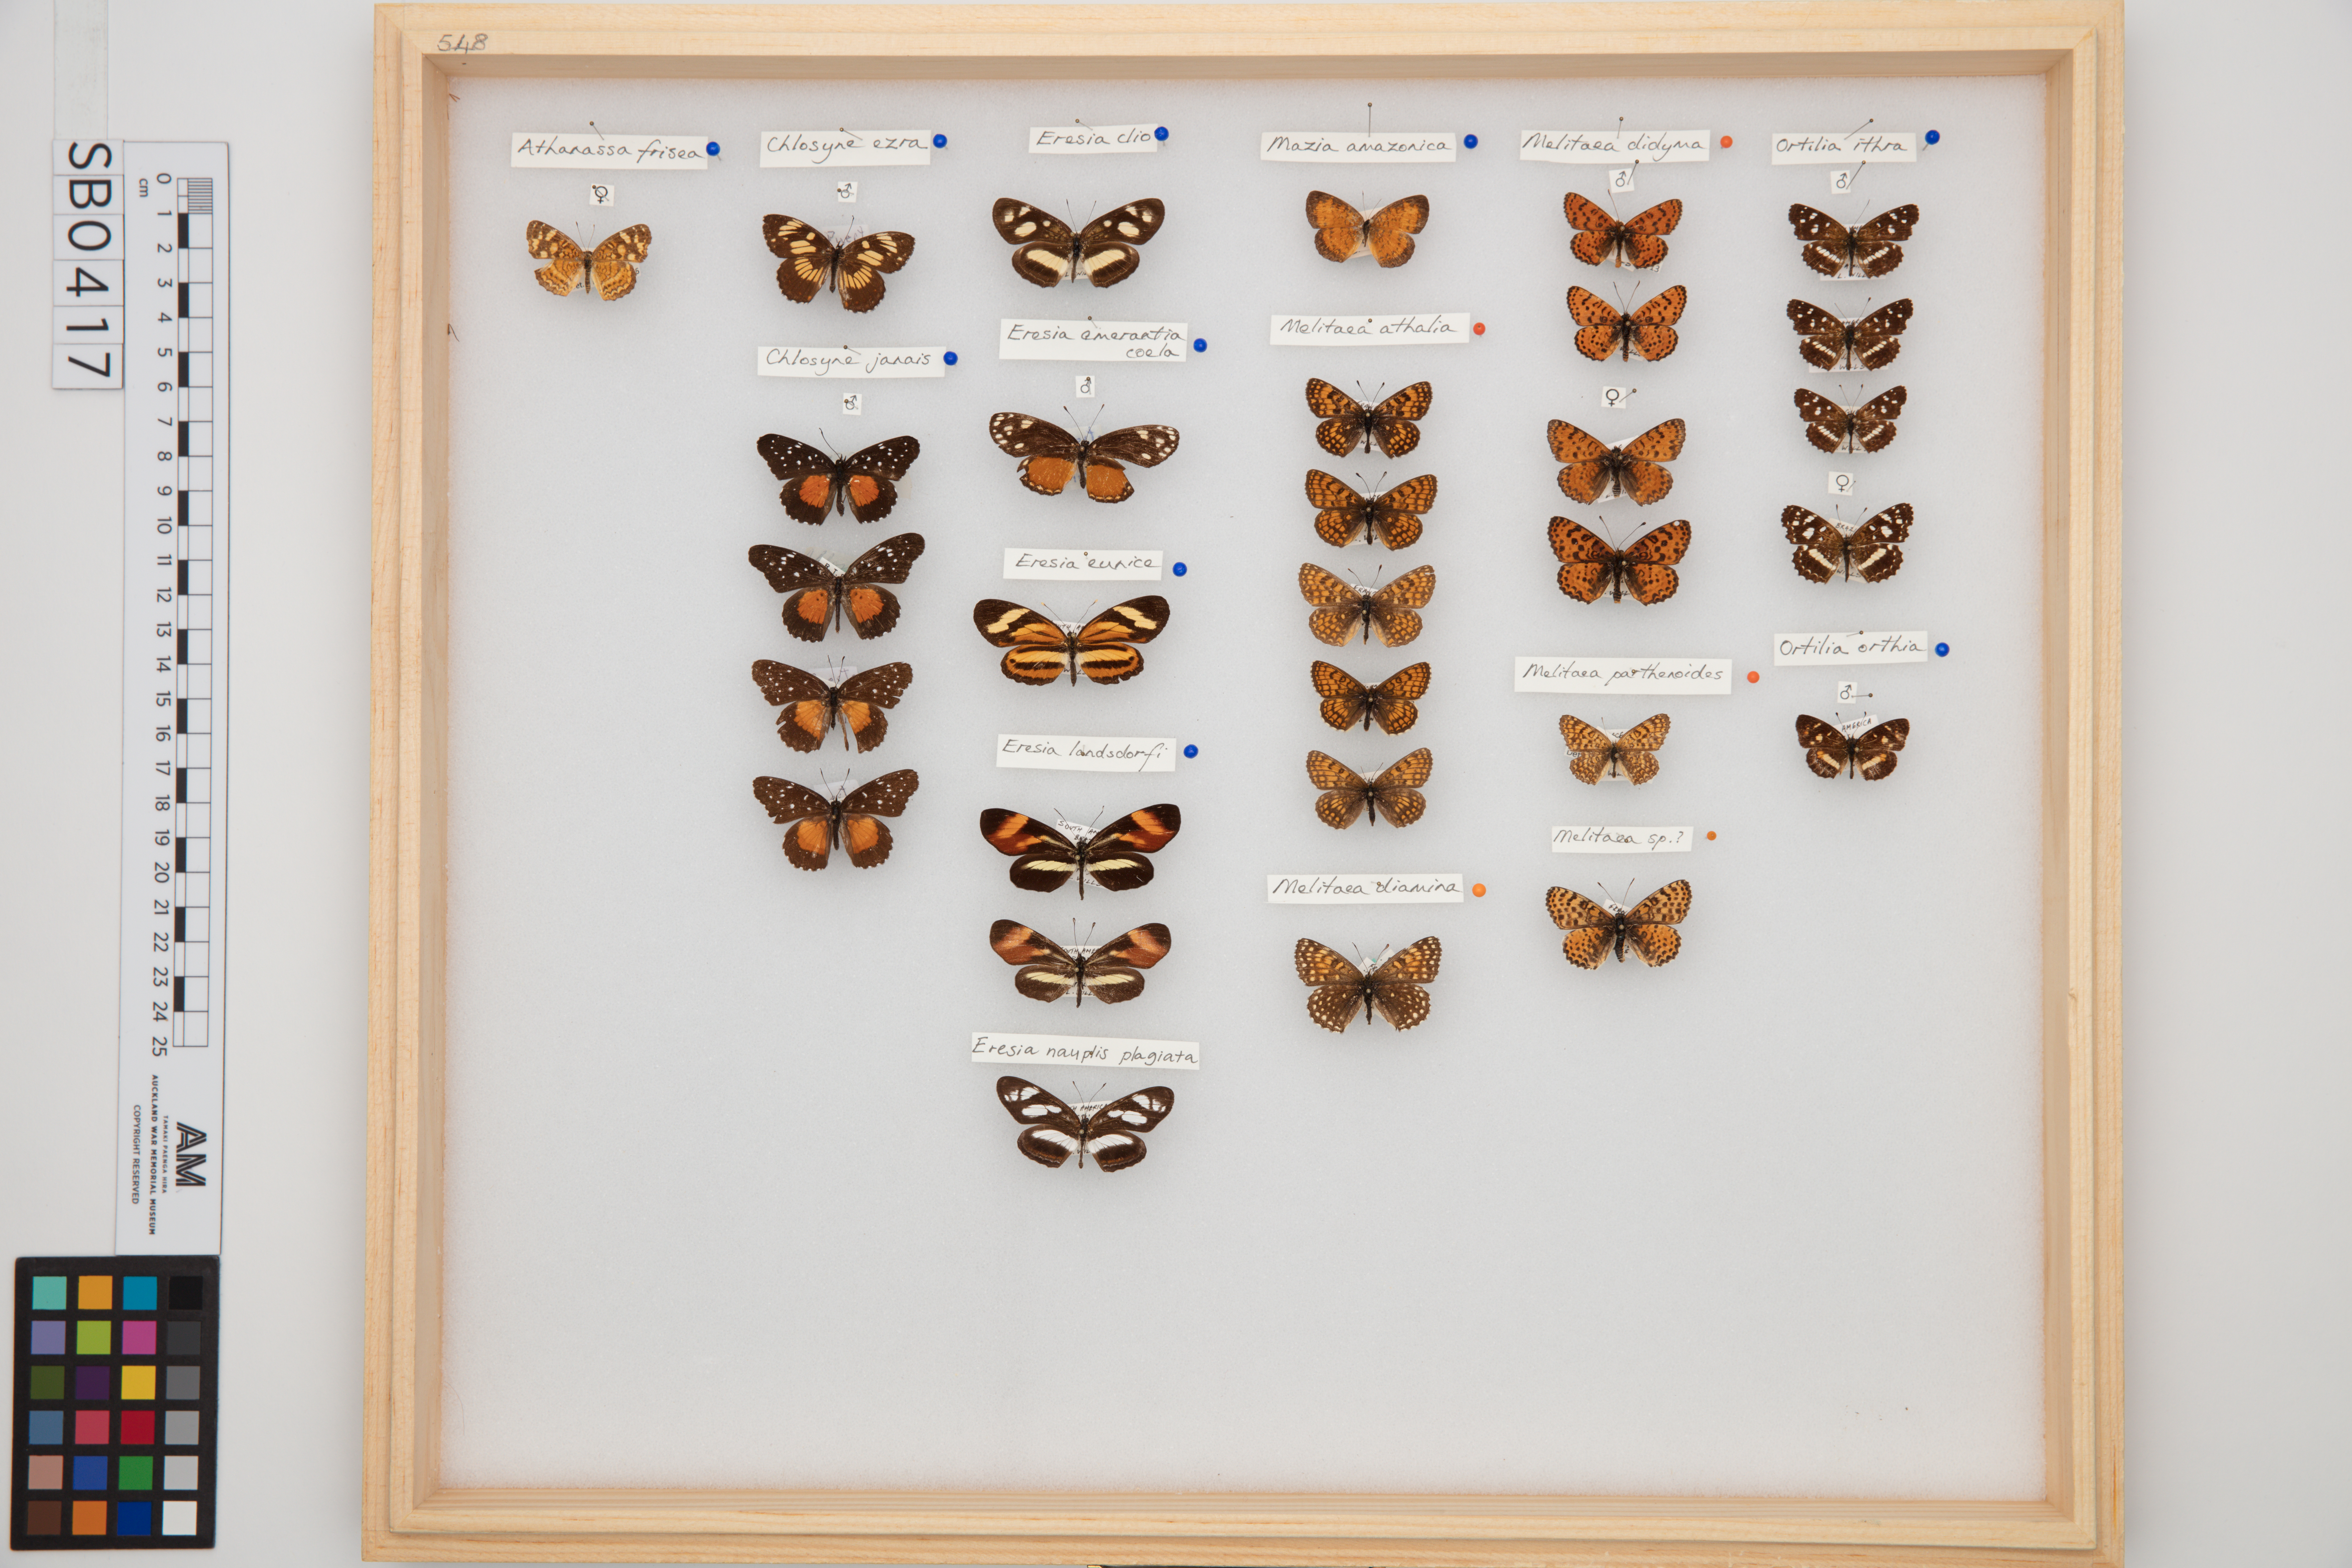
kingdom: Animalia
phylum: Arthropoda
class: Insecta
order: Lepidoptera
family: Nymphalidae
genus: Eresia
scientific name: Eresia lansdorfi
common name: Lansdorf's crescent
